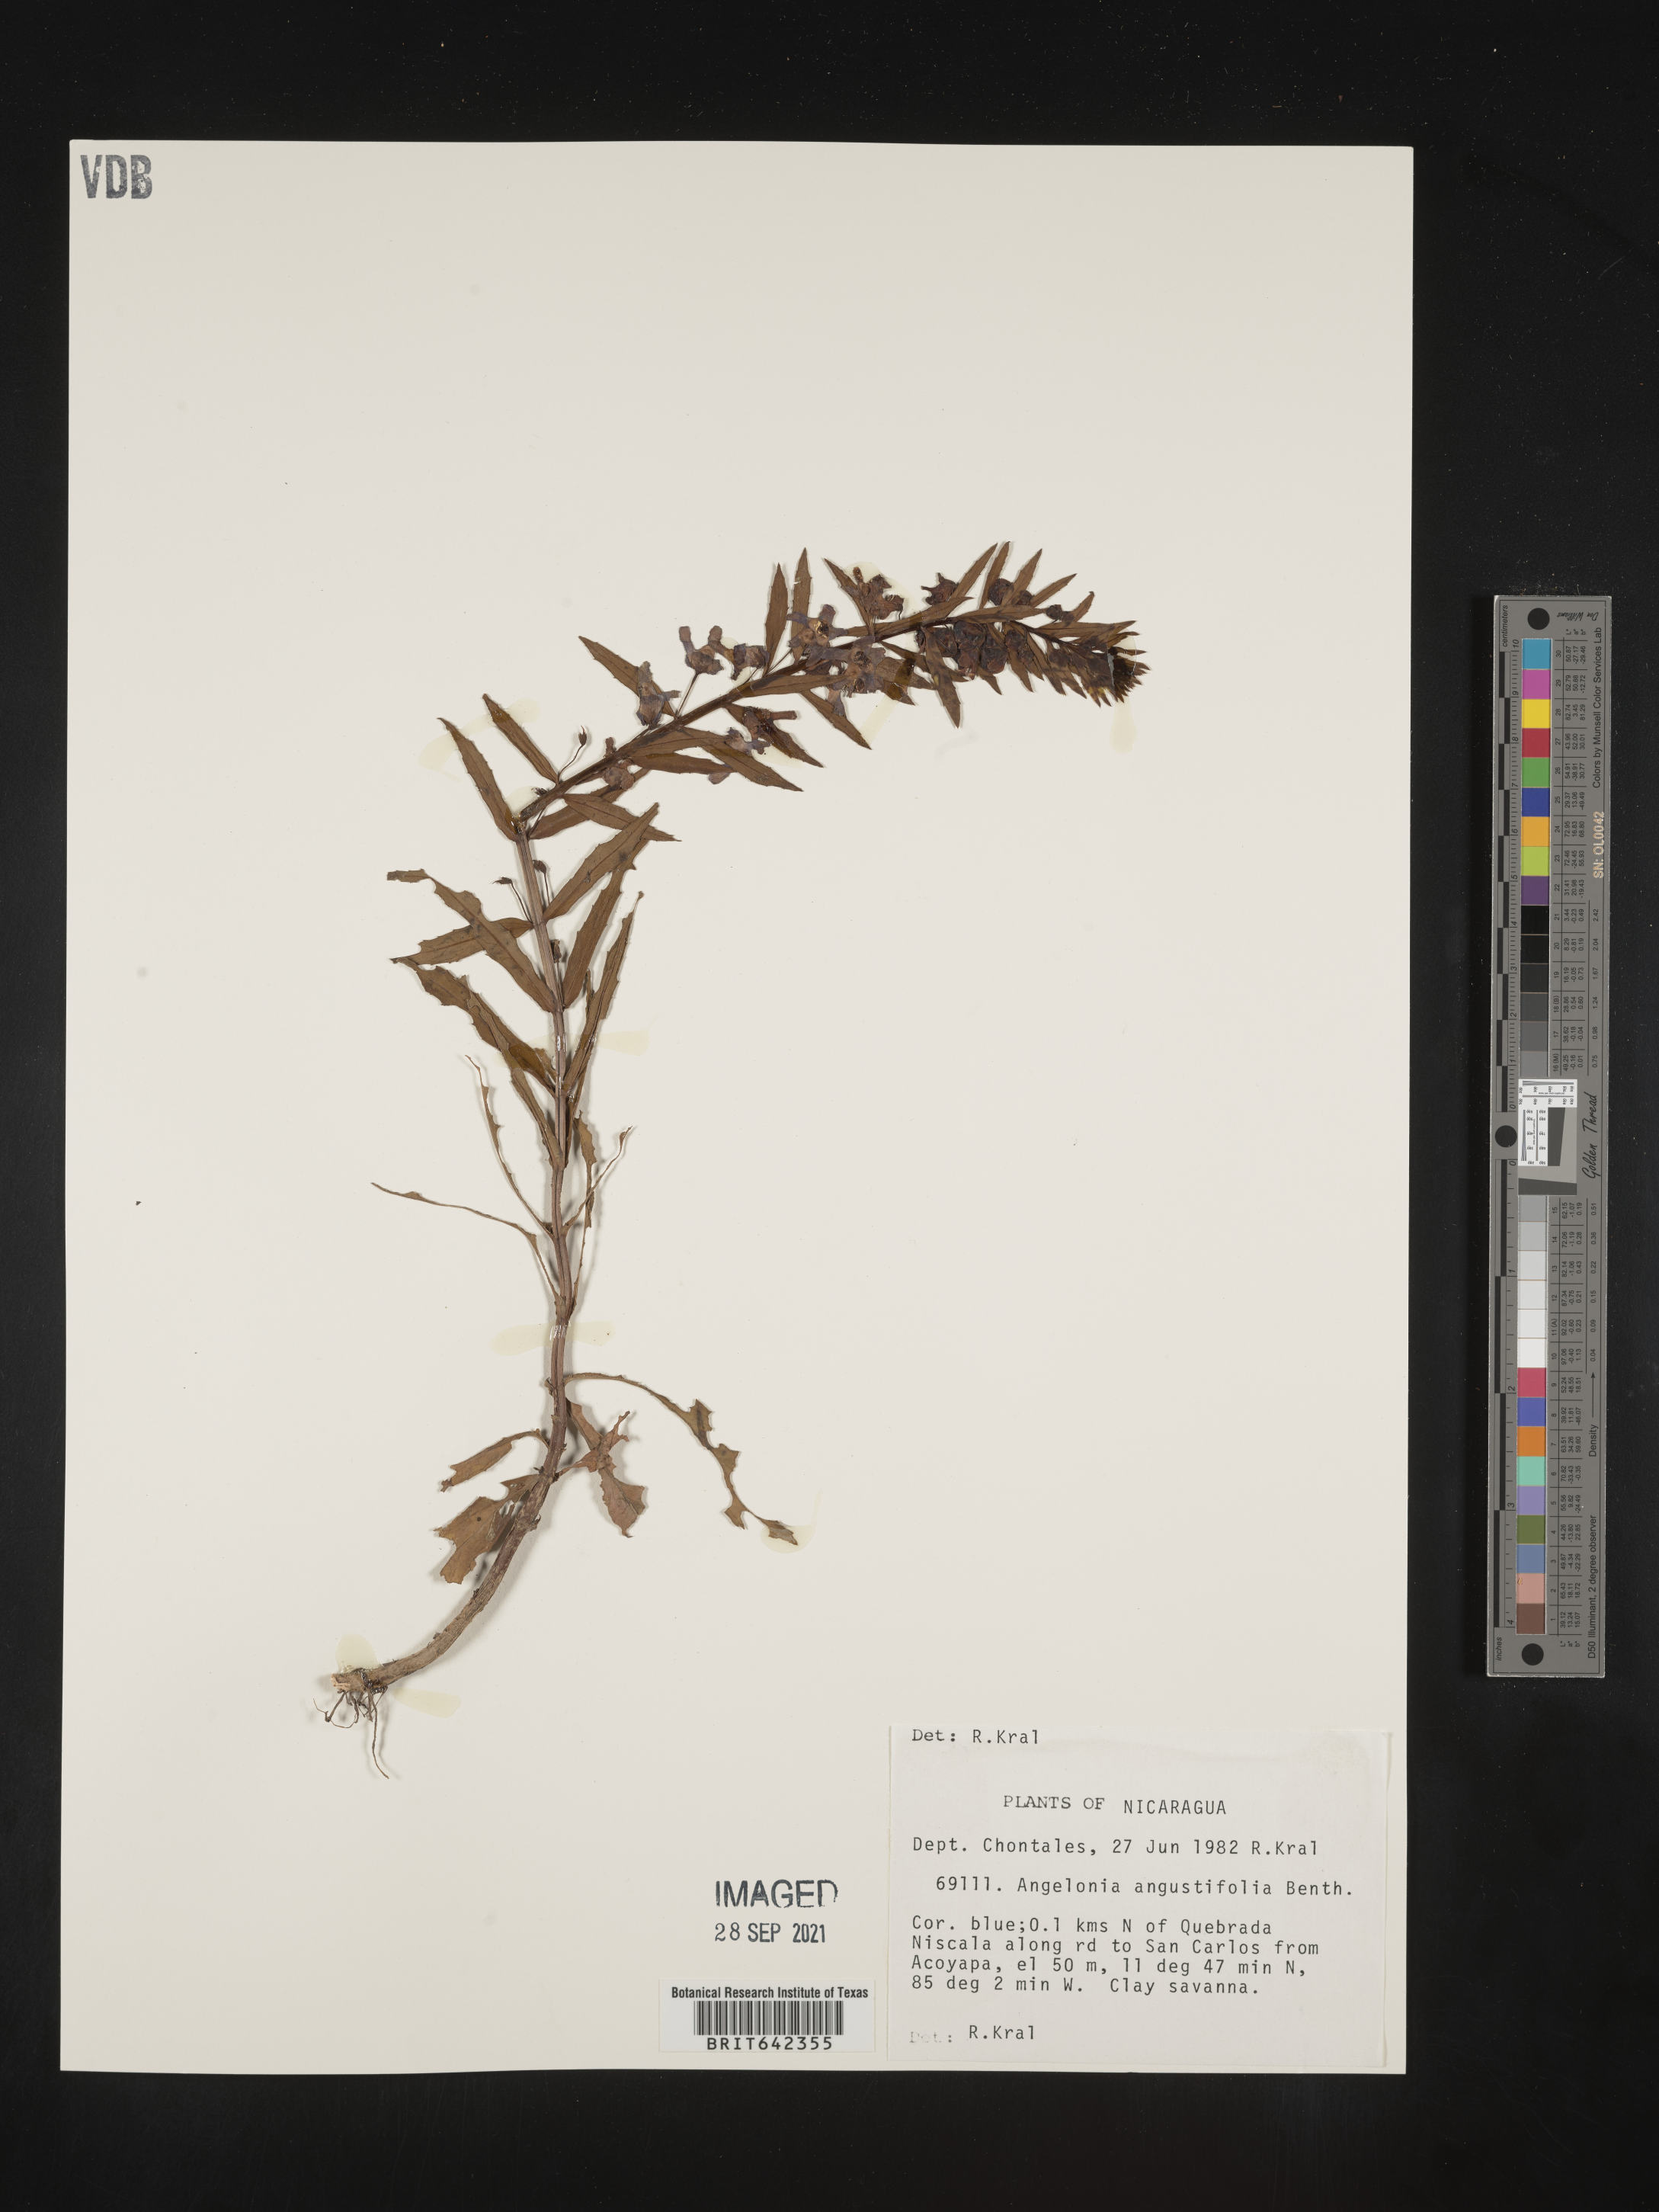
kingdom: Plantae
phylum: Tracheophyta
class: Magnoliopsida
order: Lamiales
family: Plantaginaceae
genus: Angelonia
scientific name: Angelonia
